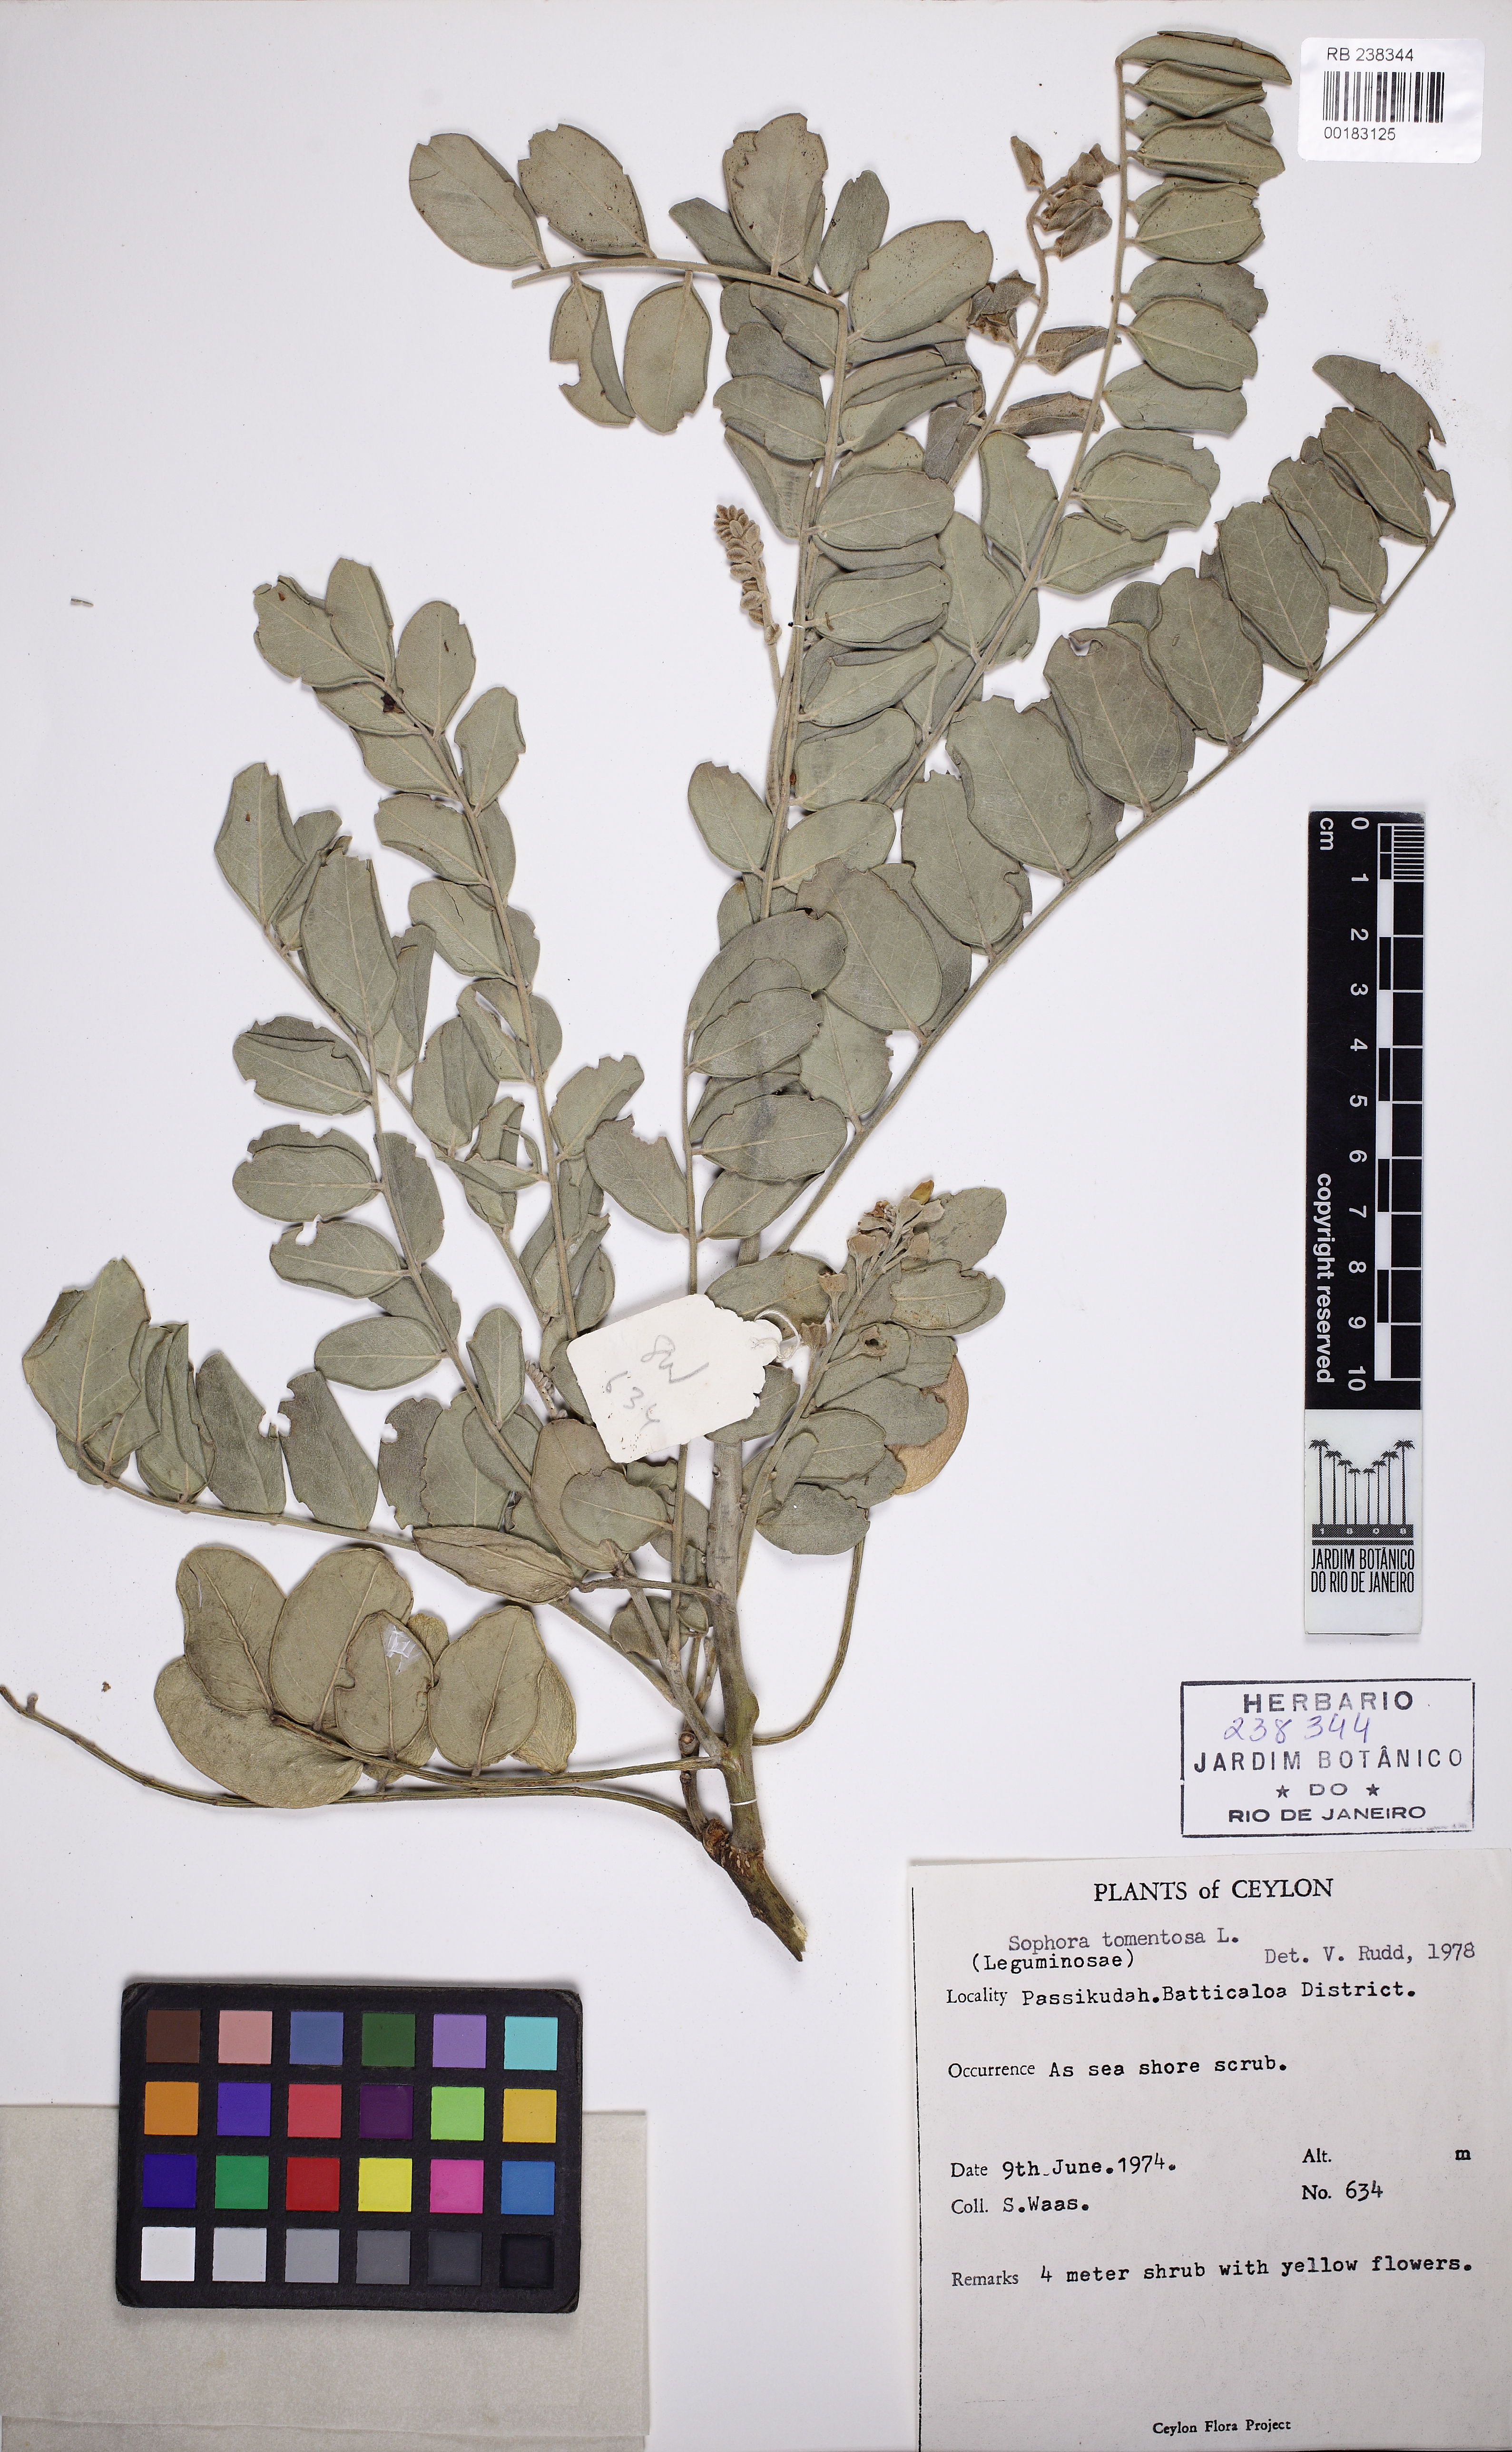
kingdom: Plantae
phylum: Tracheophyta
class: Magnoliopsida
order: Fabales
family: Fabaceae
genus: Sophora
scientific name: Sophora tomentosa
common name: Yellow necklacepod
